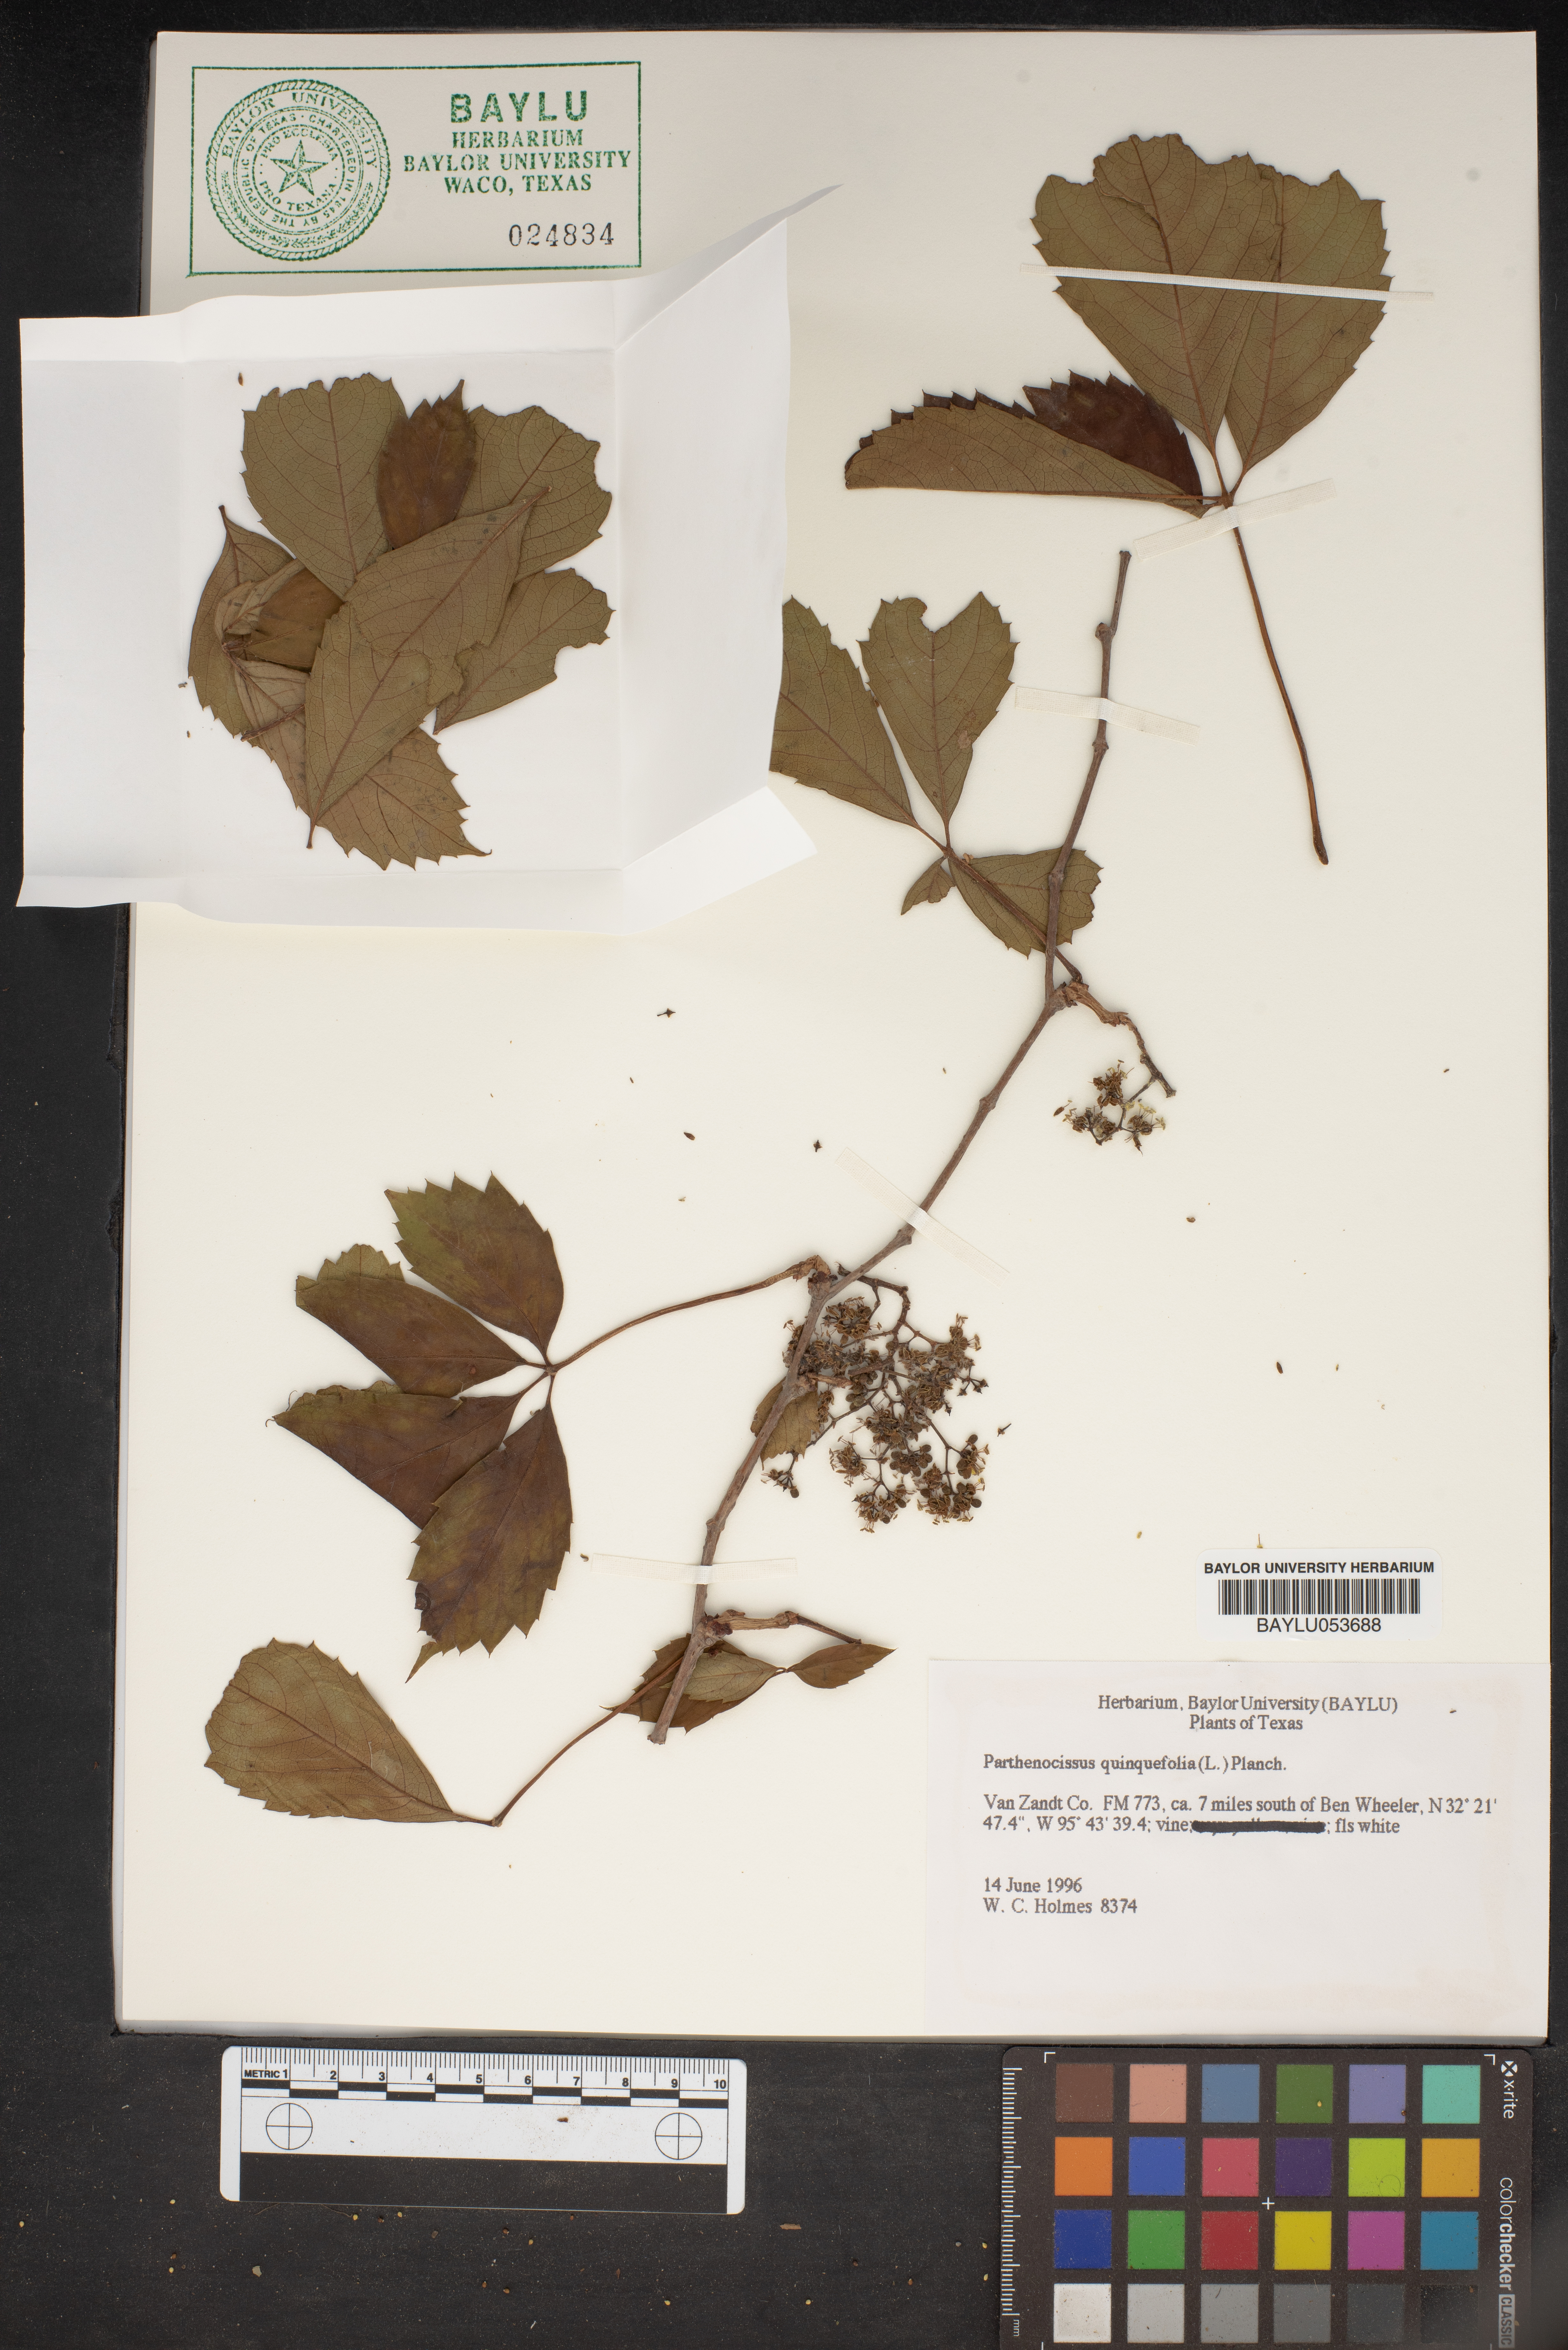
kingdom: Plantae
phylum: Tracheophyta
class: Magnoliopsida
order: Vitales
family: Vitaceae
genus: Parthenocissus
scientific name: Parthenocissus quinquefolia
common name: Virginia-creeper
